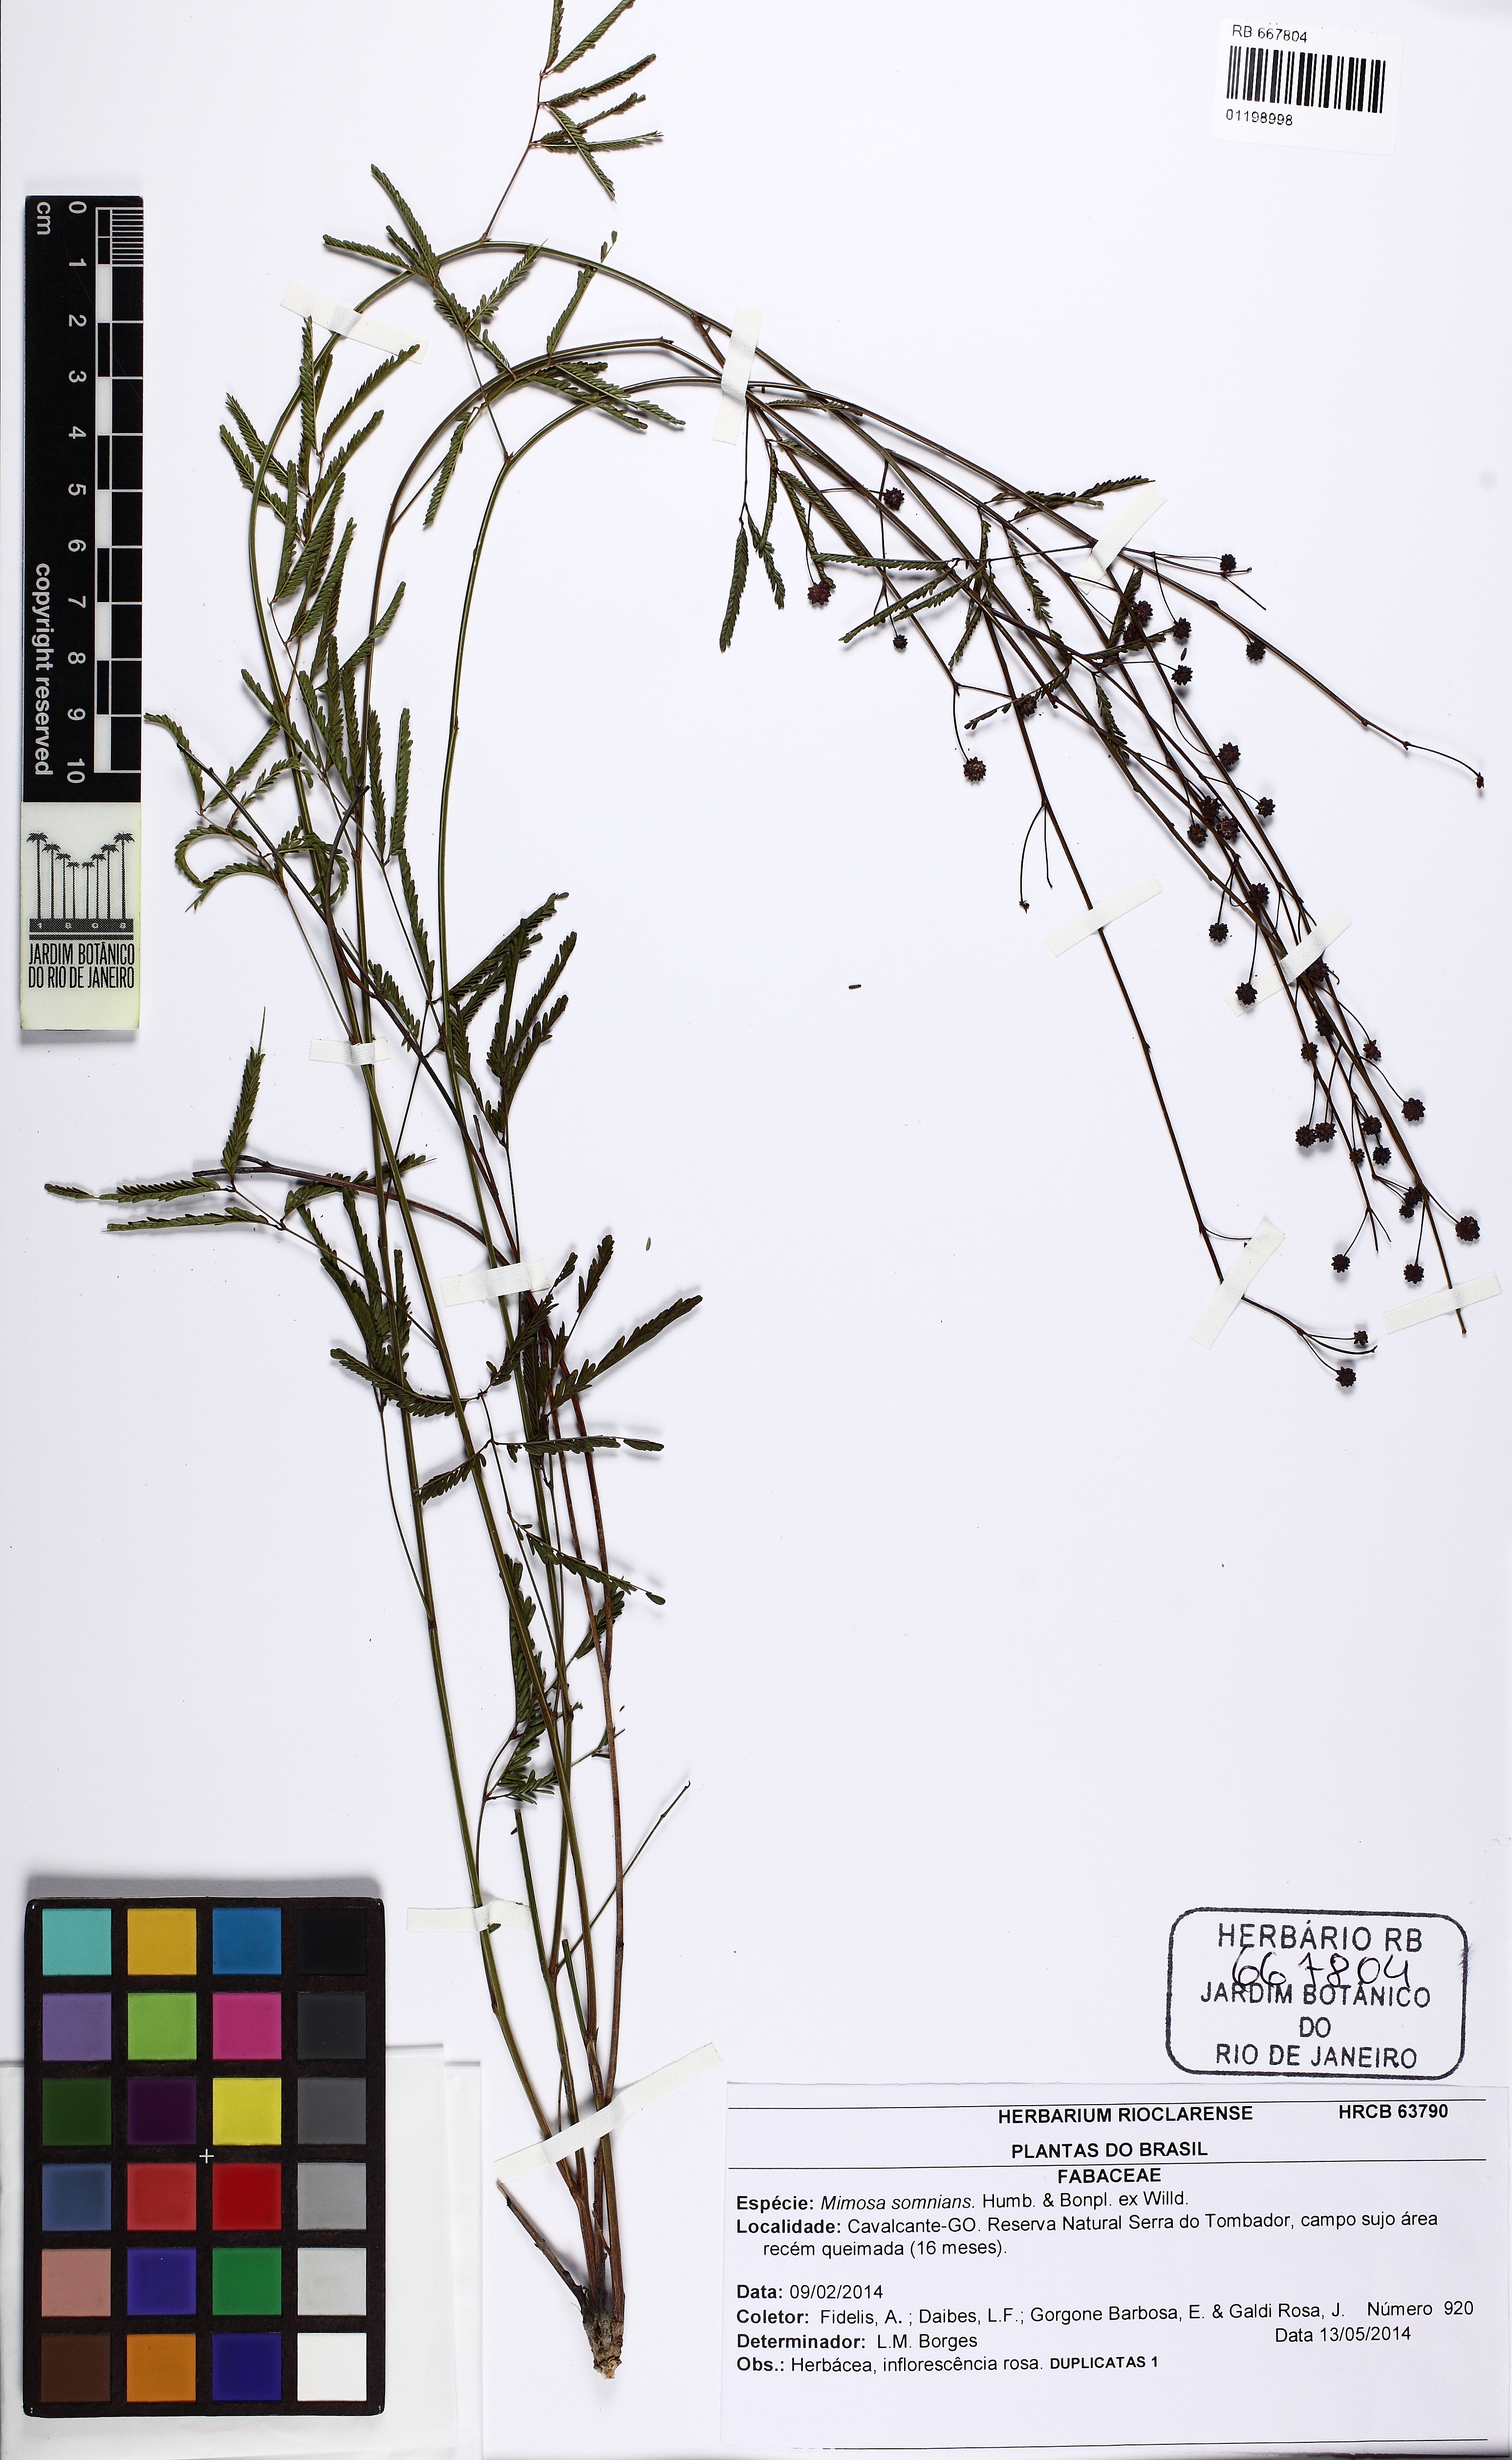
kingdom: Plantae
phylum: Tracheophyta
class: Magnoliopsida
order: Fabales
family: Fabaceae
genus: Mimosa
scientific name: Mimosa somnians
